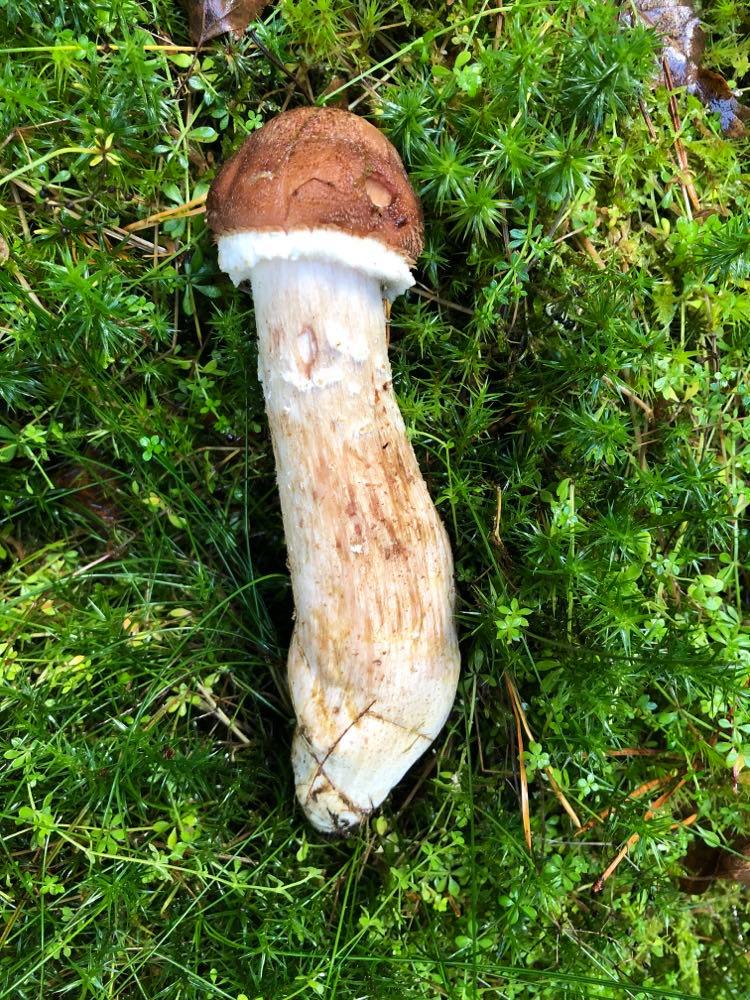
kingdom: Fungi
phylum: Basidiomycota
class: Agaricomycetes
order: Agaricales
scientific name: Agaricales
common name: champignonordenen
